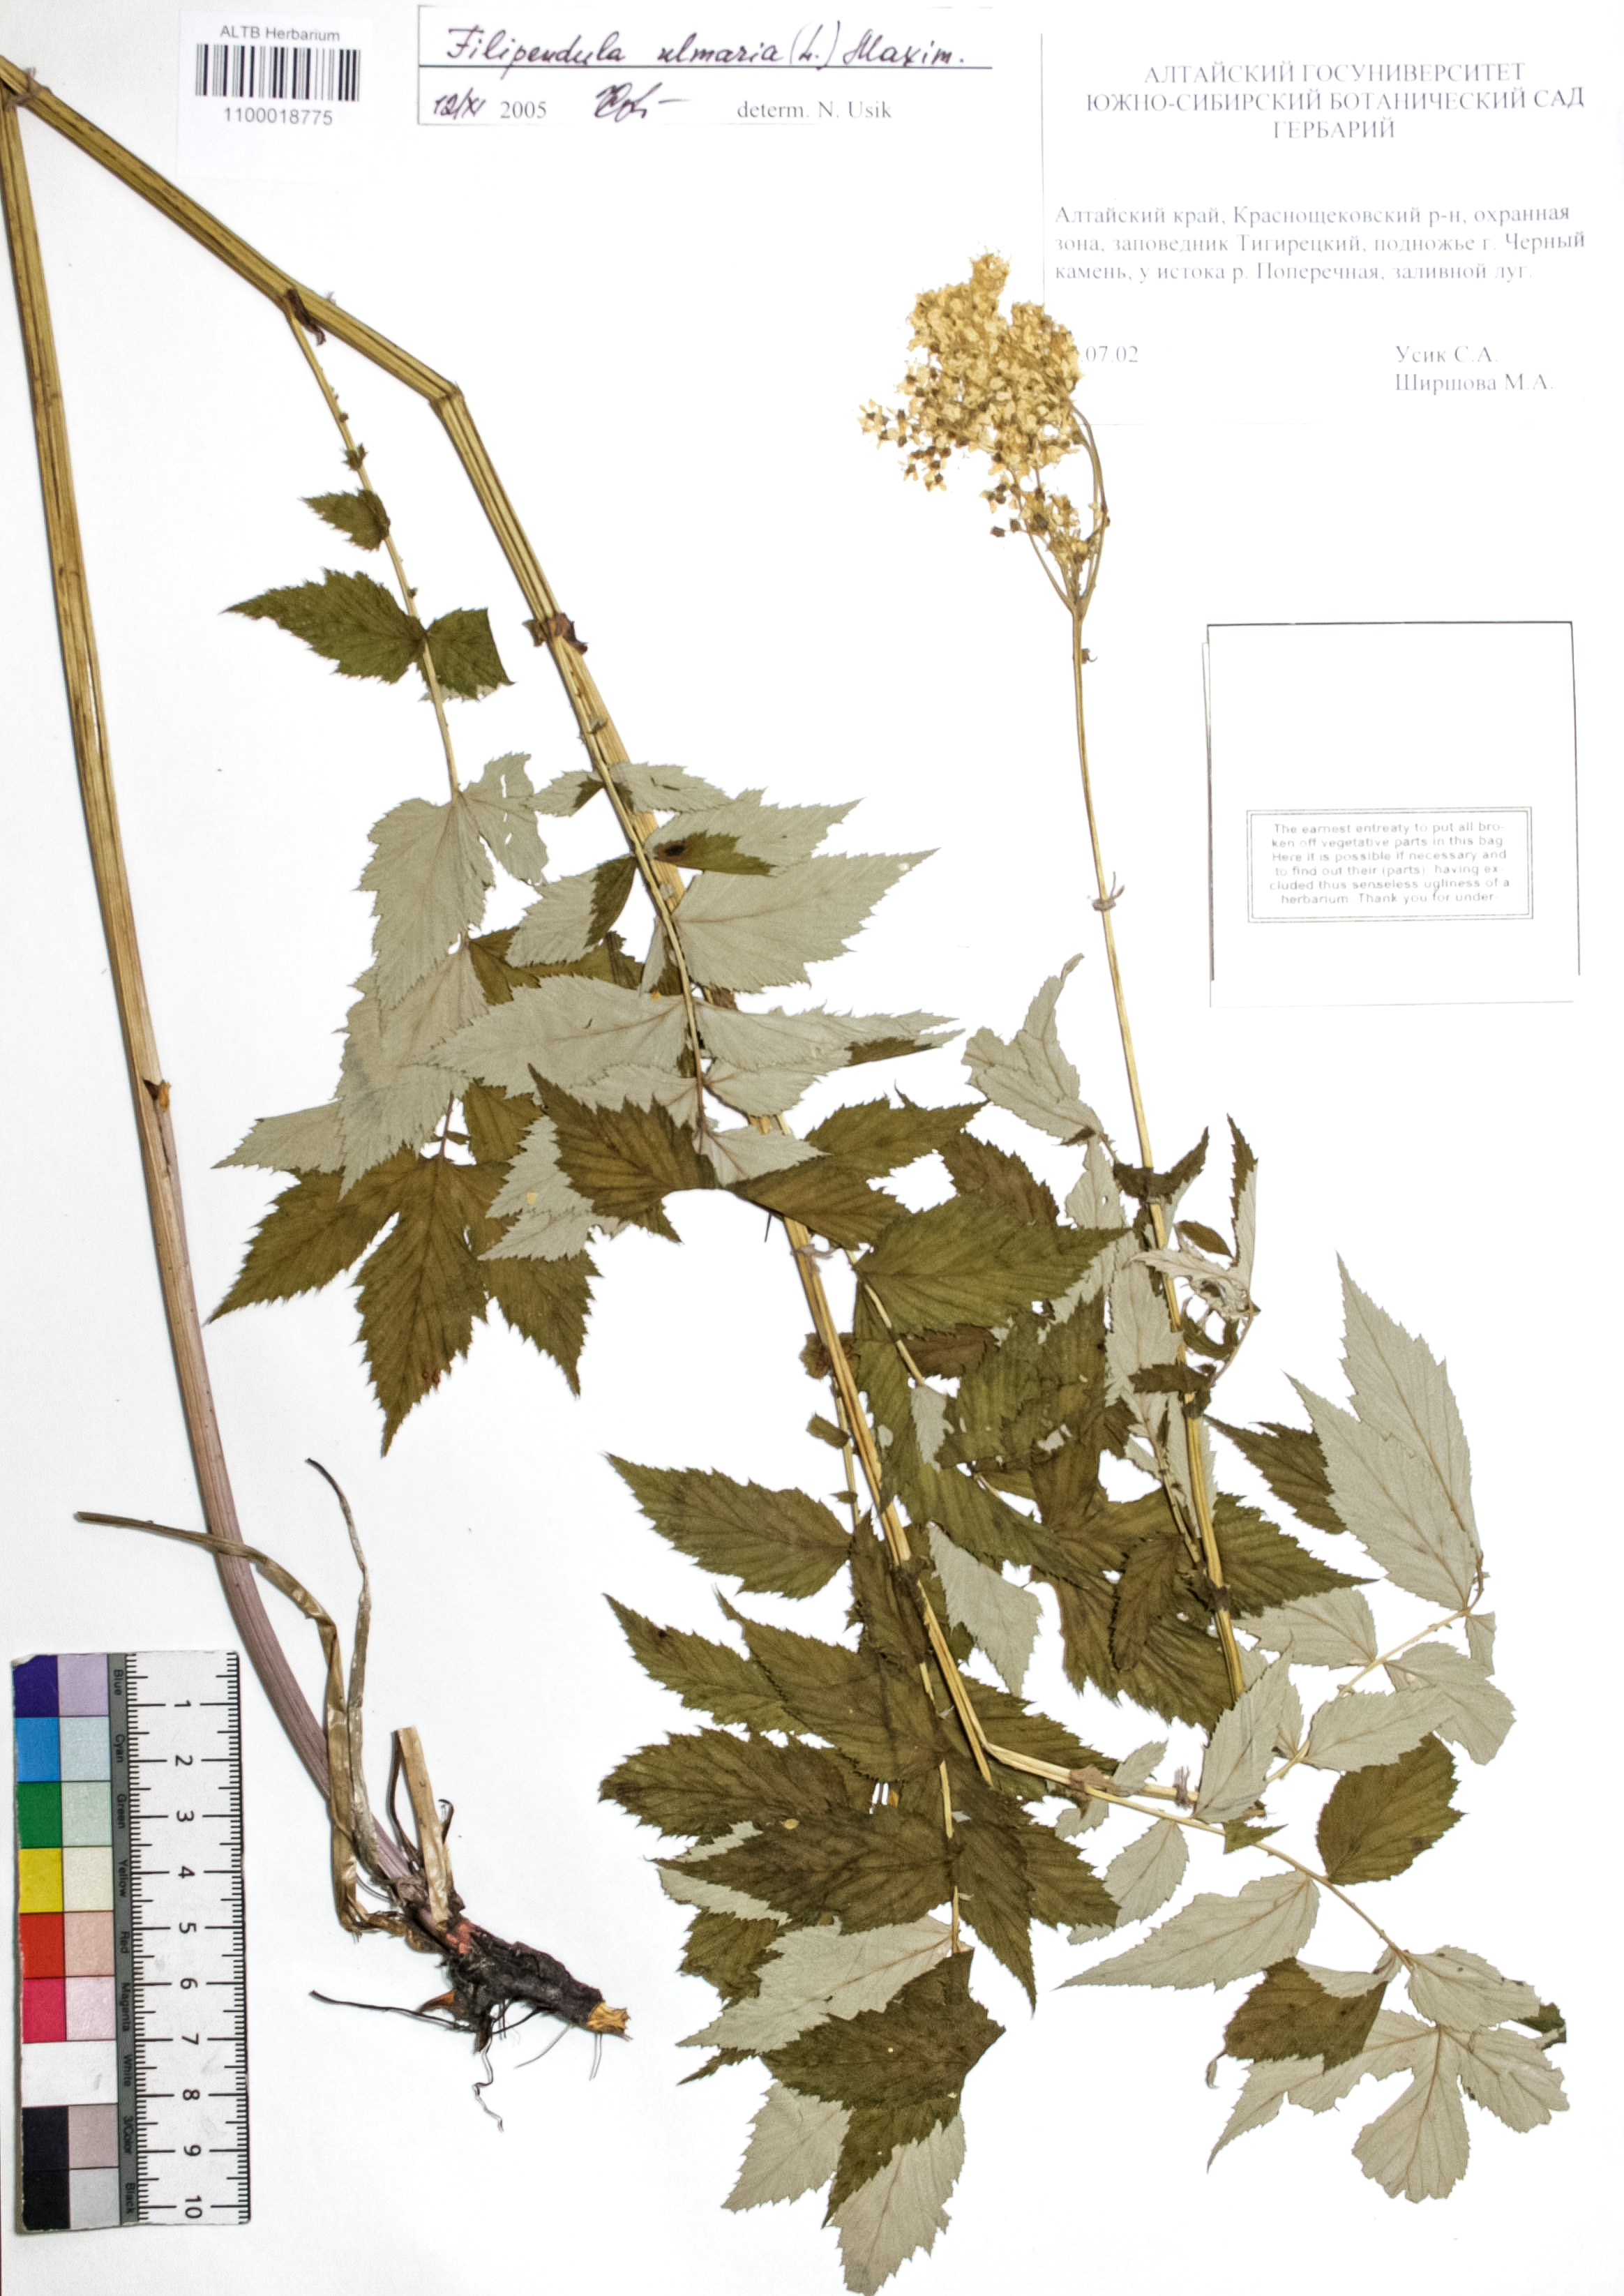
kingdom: Plantae
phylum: Tracheophyta
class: Magnoliopsida
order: Rosales
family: Rosaceae
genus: Filipendula
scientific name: Filipendula ulmaria
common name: Meadowsweet
